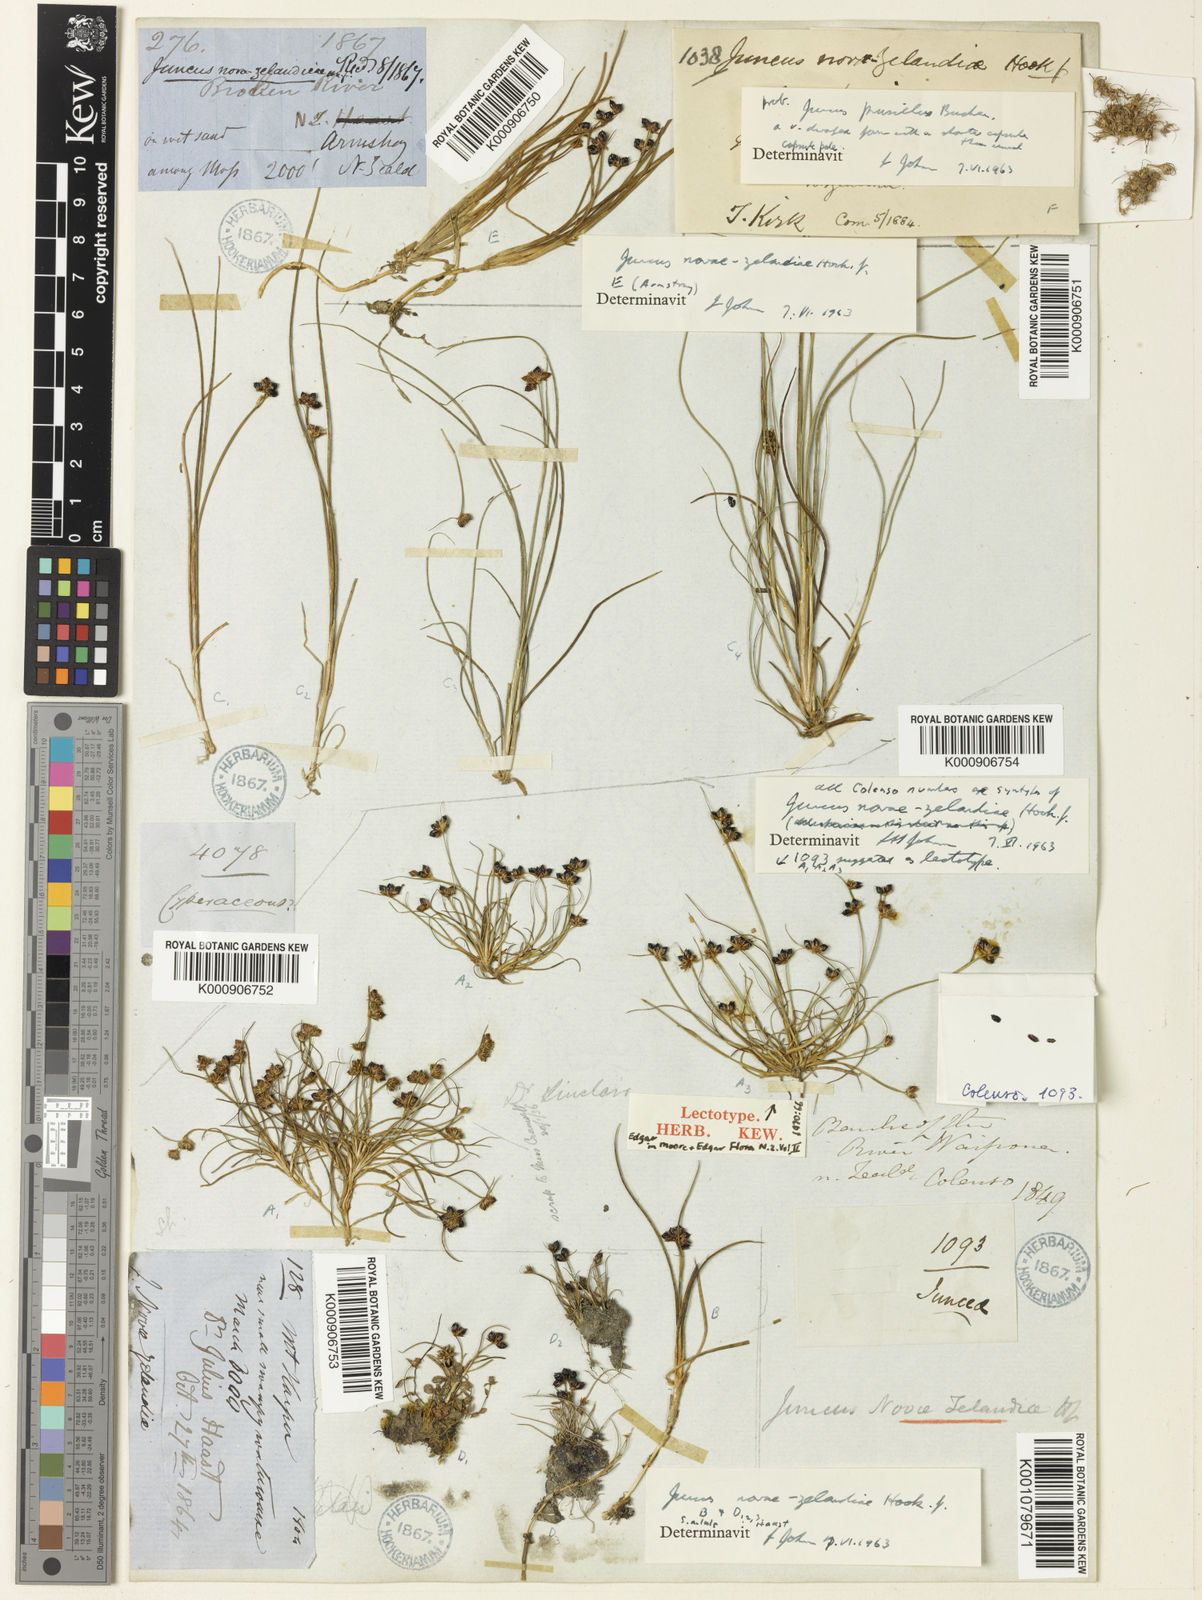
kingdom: Plantae
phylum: Tracheophyta
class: Liliopsida
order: Poales
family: Juncaceae
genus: Juncus
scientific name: Juncus novae-zelandiae
